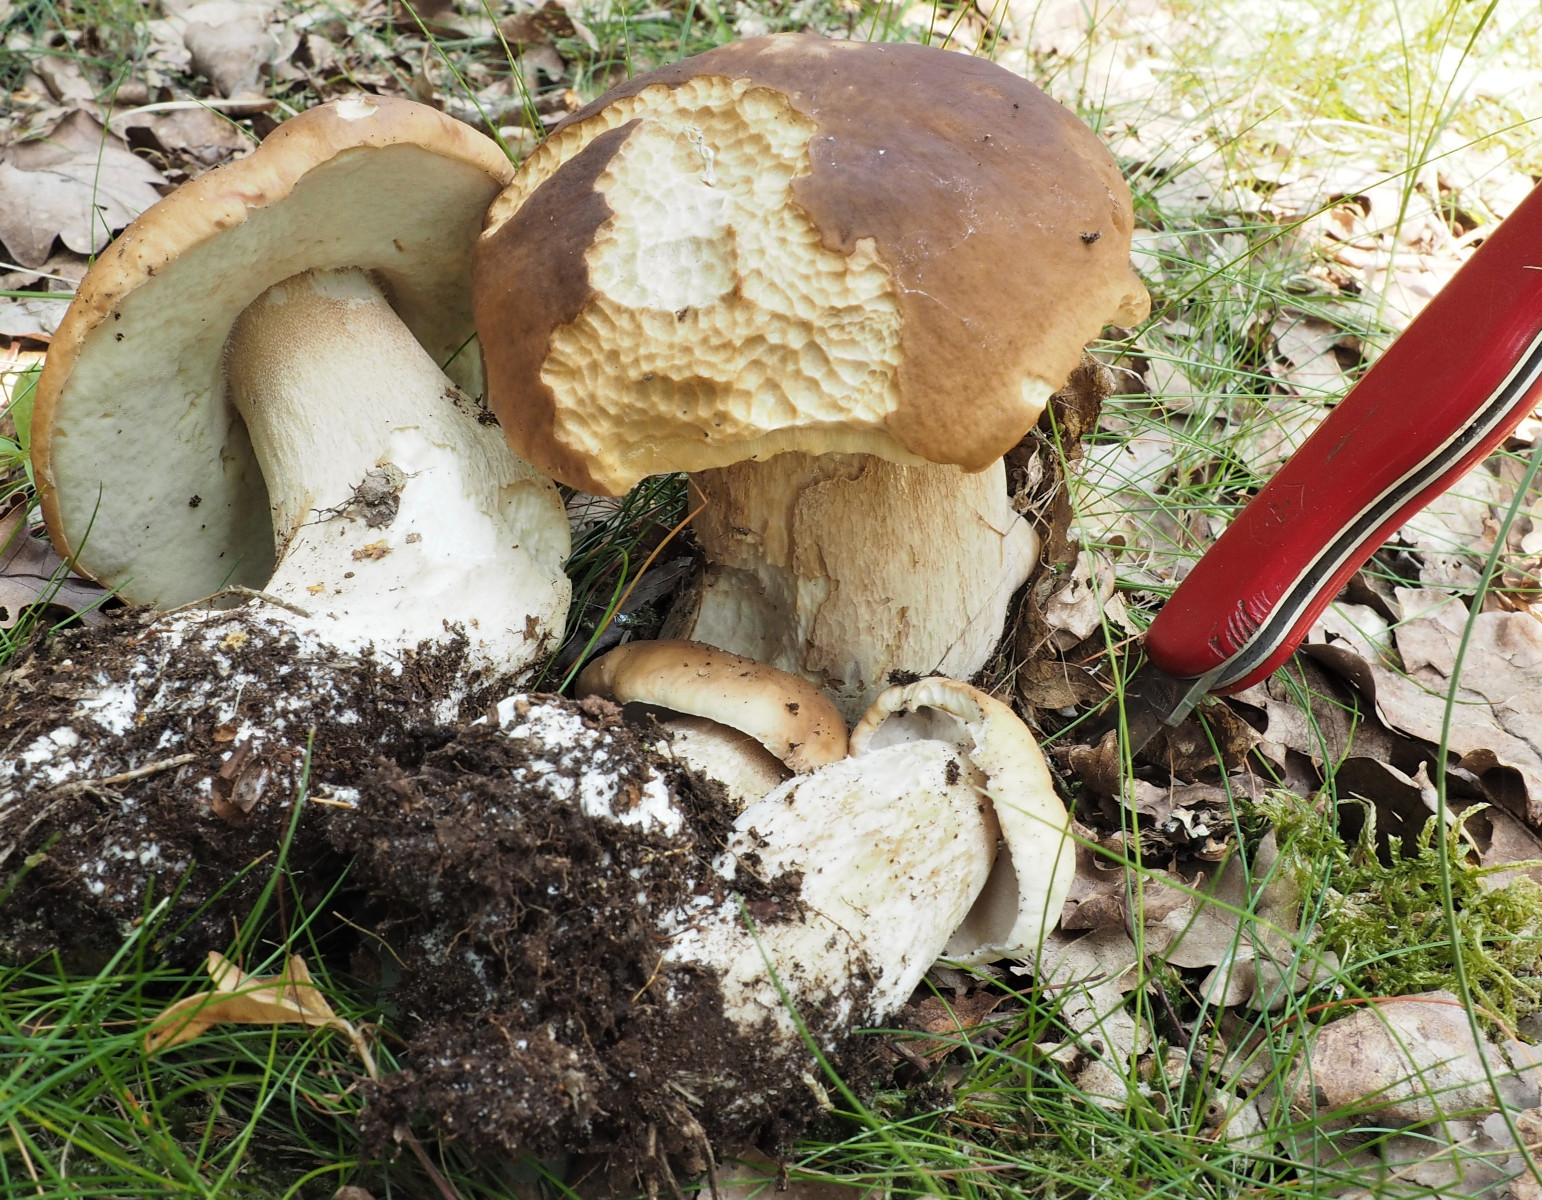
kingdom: Fungi
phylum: Basidiomycota
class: Agaricomycetes
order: Boletales
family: Boletaceae
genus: Boletus
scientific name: Boletus edulis
